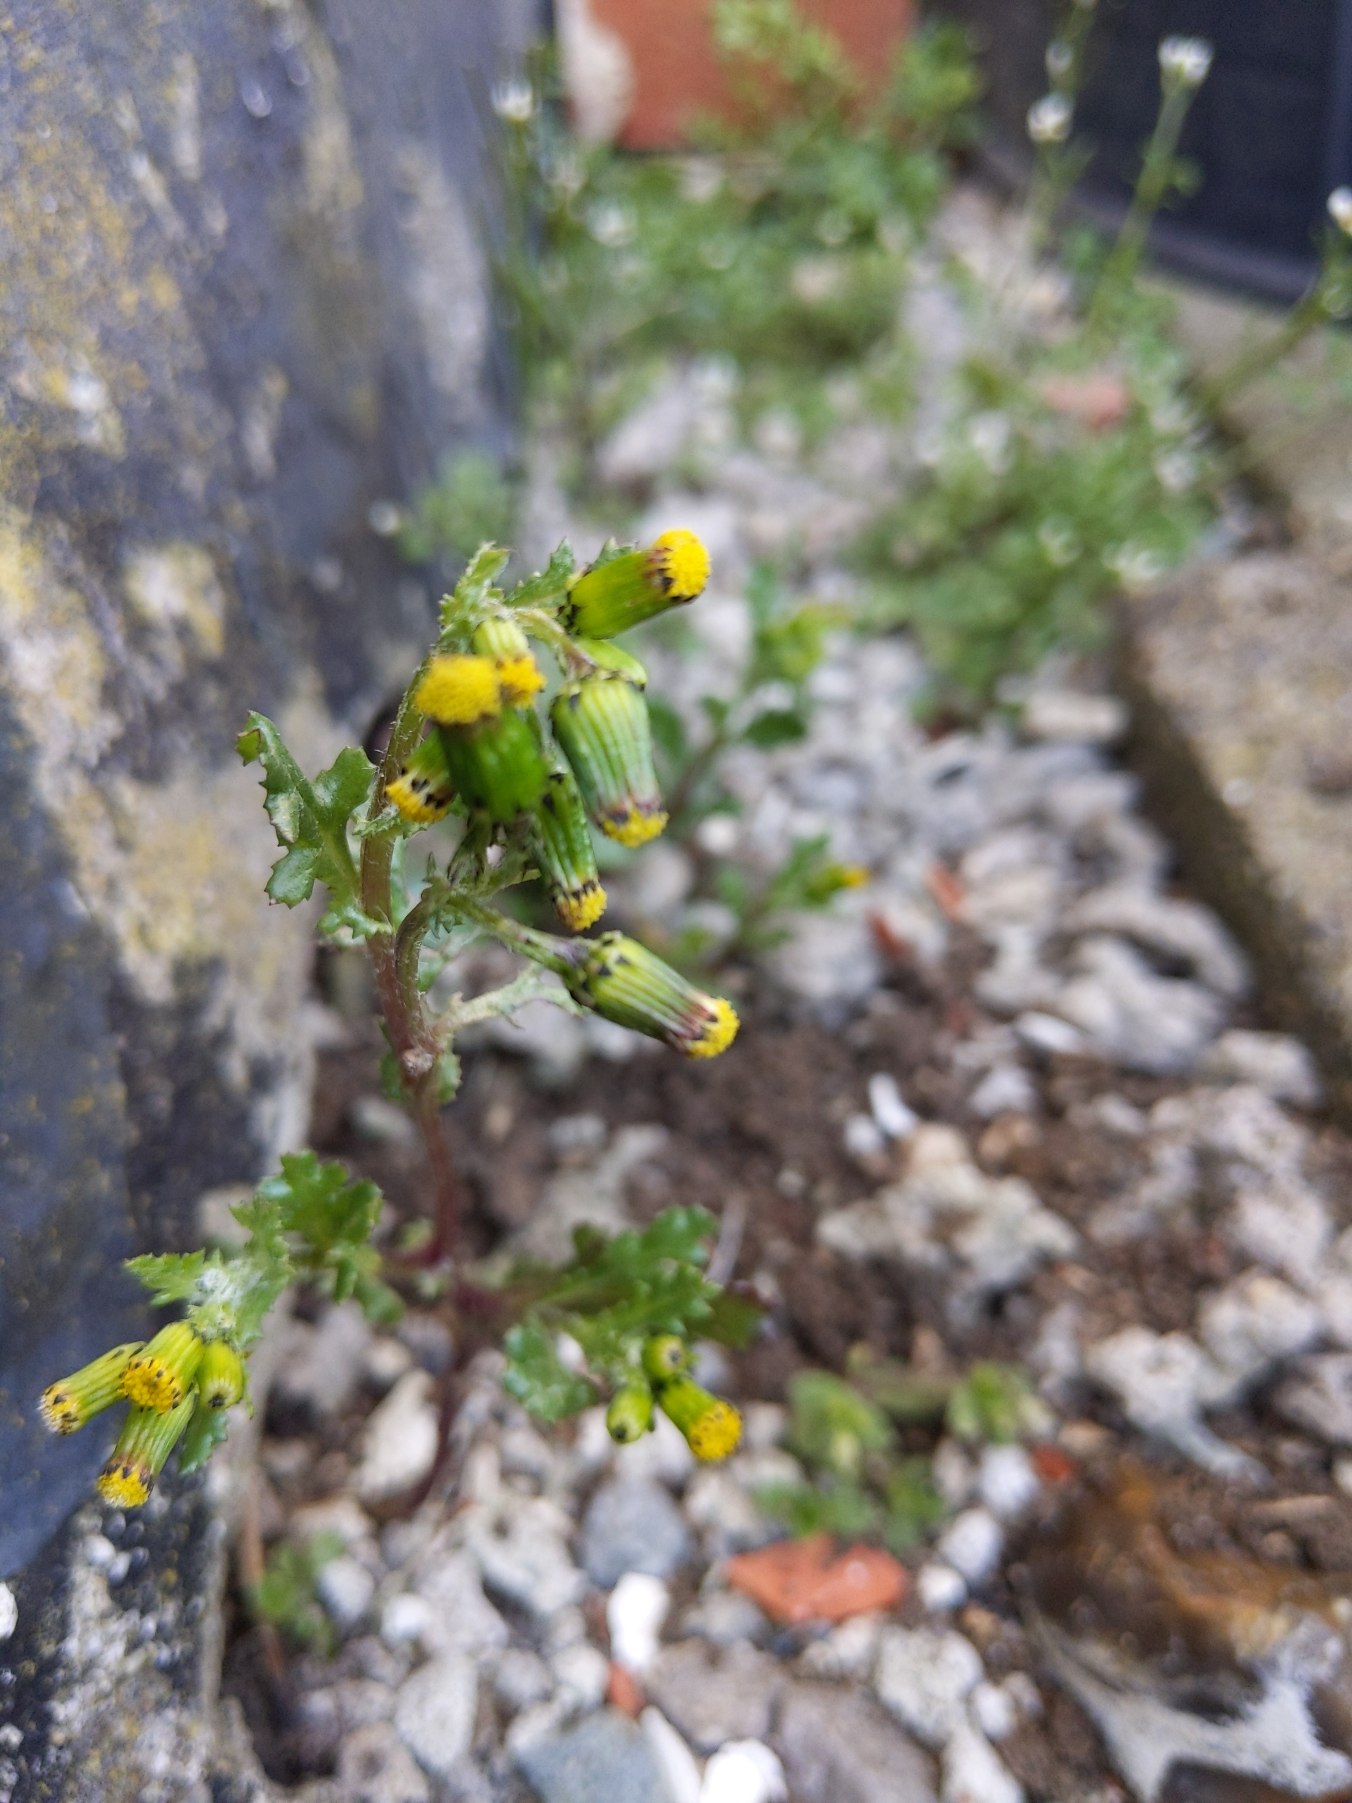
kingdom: Plantae
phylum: Tracheophyta
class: Magnoliopsida
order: Asterales
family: Asteraceae
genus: Senecio
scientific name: Senecio vulgaris
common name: Almindelig brandbæger
